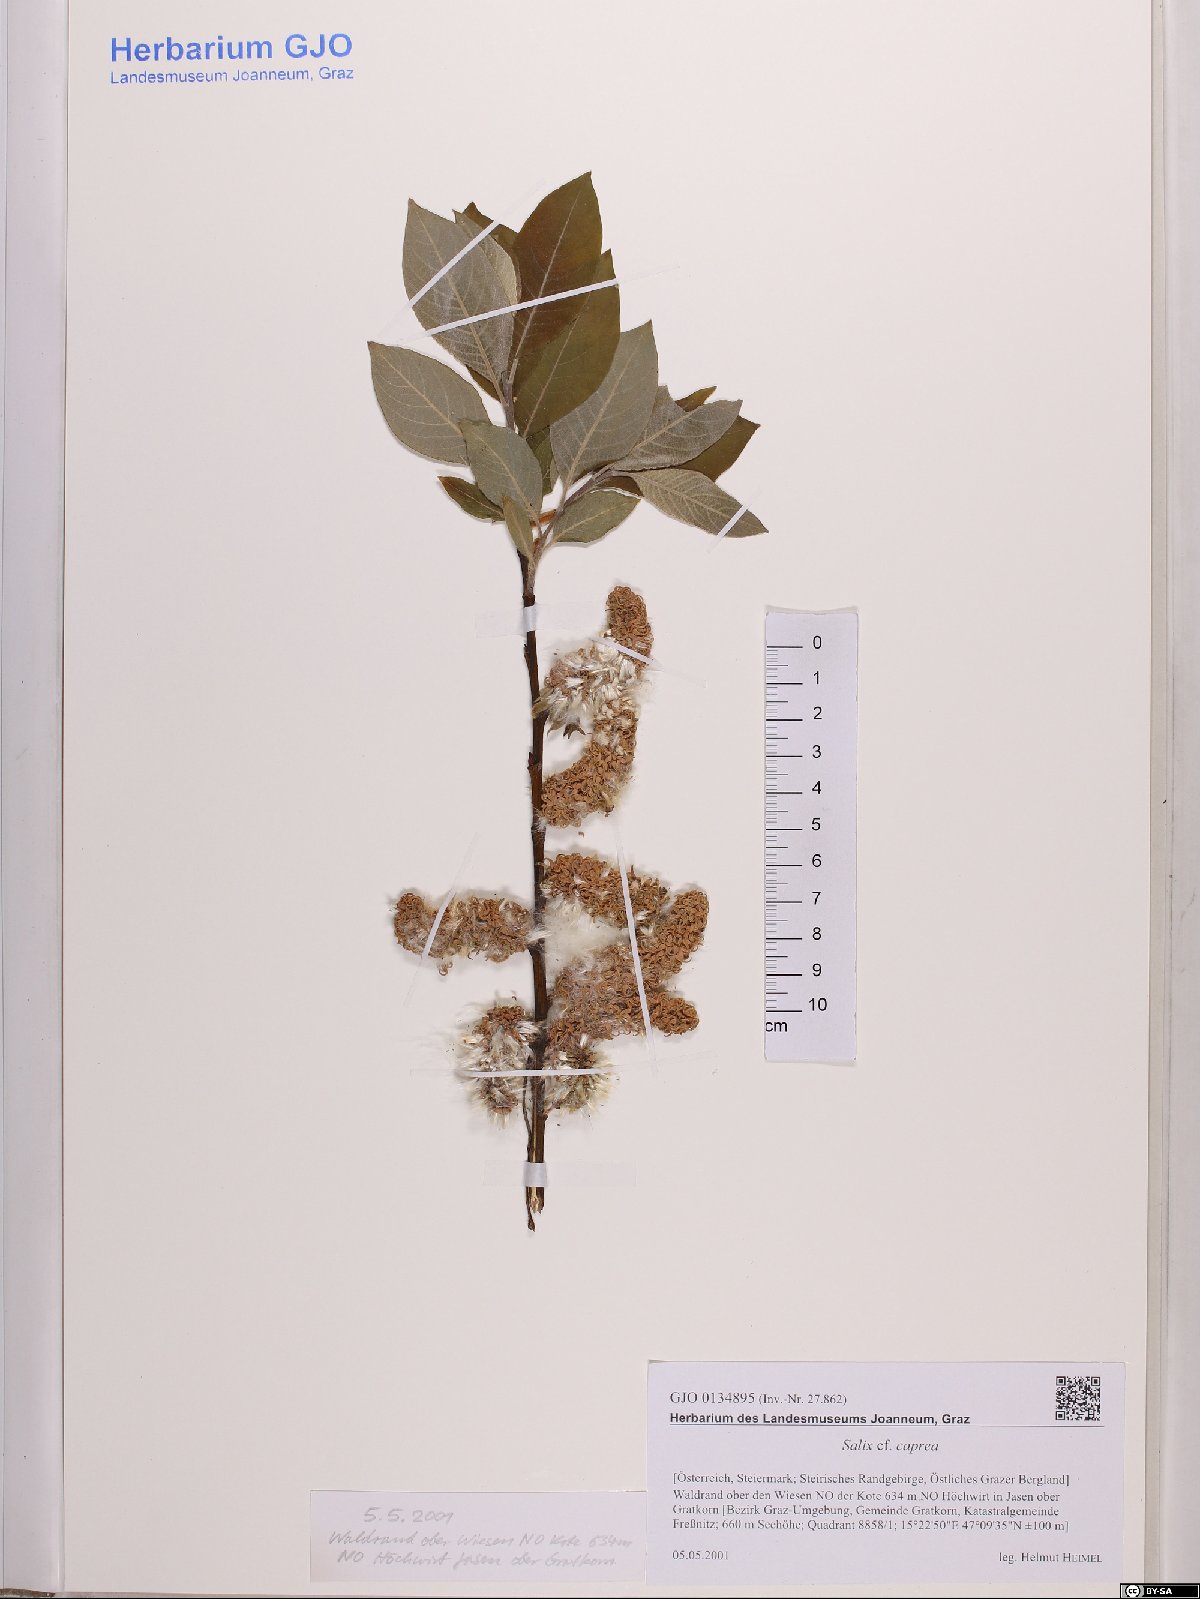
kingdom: Plantae
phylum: Tracheophyta
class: Magnoliopsida
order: Malpighiales
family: Salicaceae
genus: Salix
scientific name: Salix caprea
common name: Goat willow
